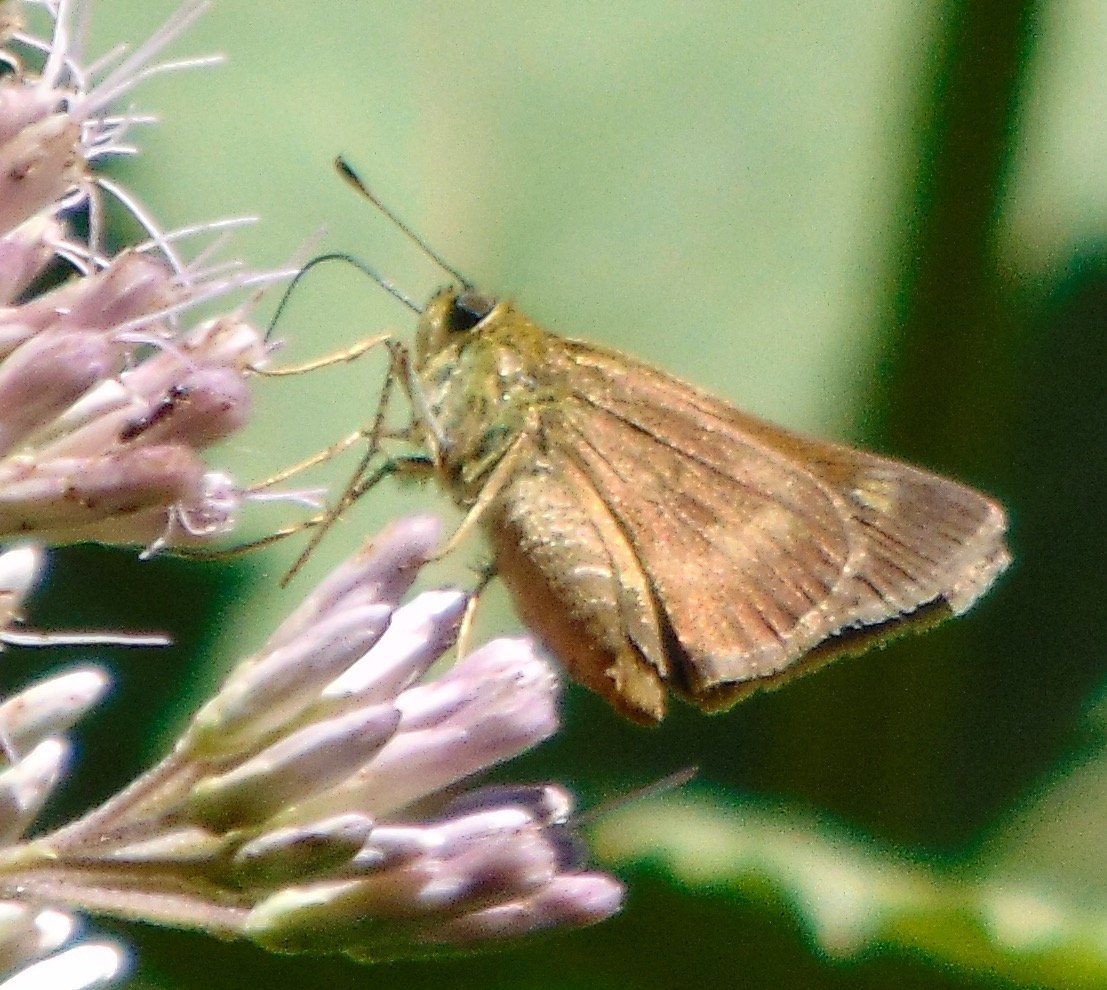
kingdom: Animalia
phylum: Arthropoda
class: Insecta
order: Lepidoptera
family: Hesperiidae
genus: Polites
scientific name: Polites egeremet
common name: Northern Broken-Dash
